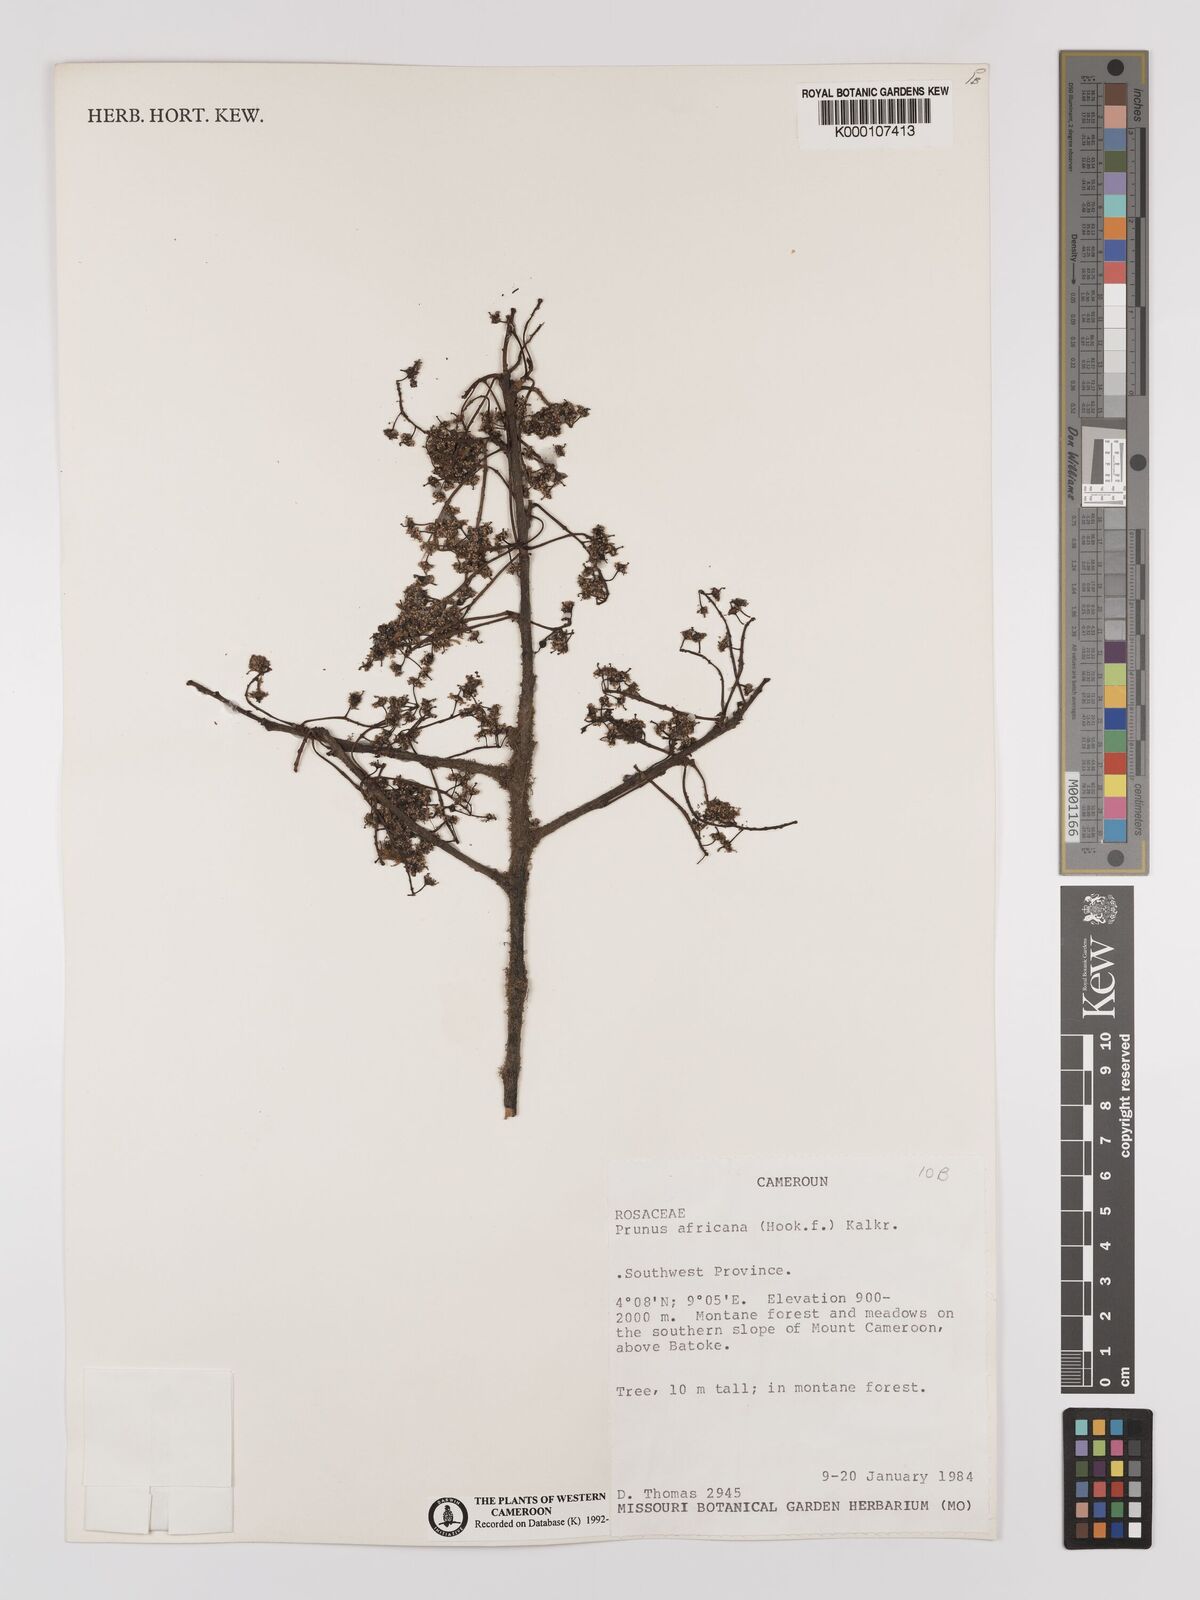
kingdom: Plantae
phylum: Tracheophyta
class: Magnoliopsida
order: Rosales
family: Rosaceae
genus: Prunus
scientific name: Prunus africana
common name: African cherry
